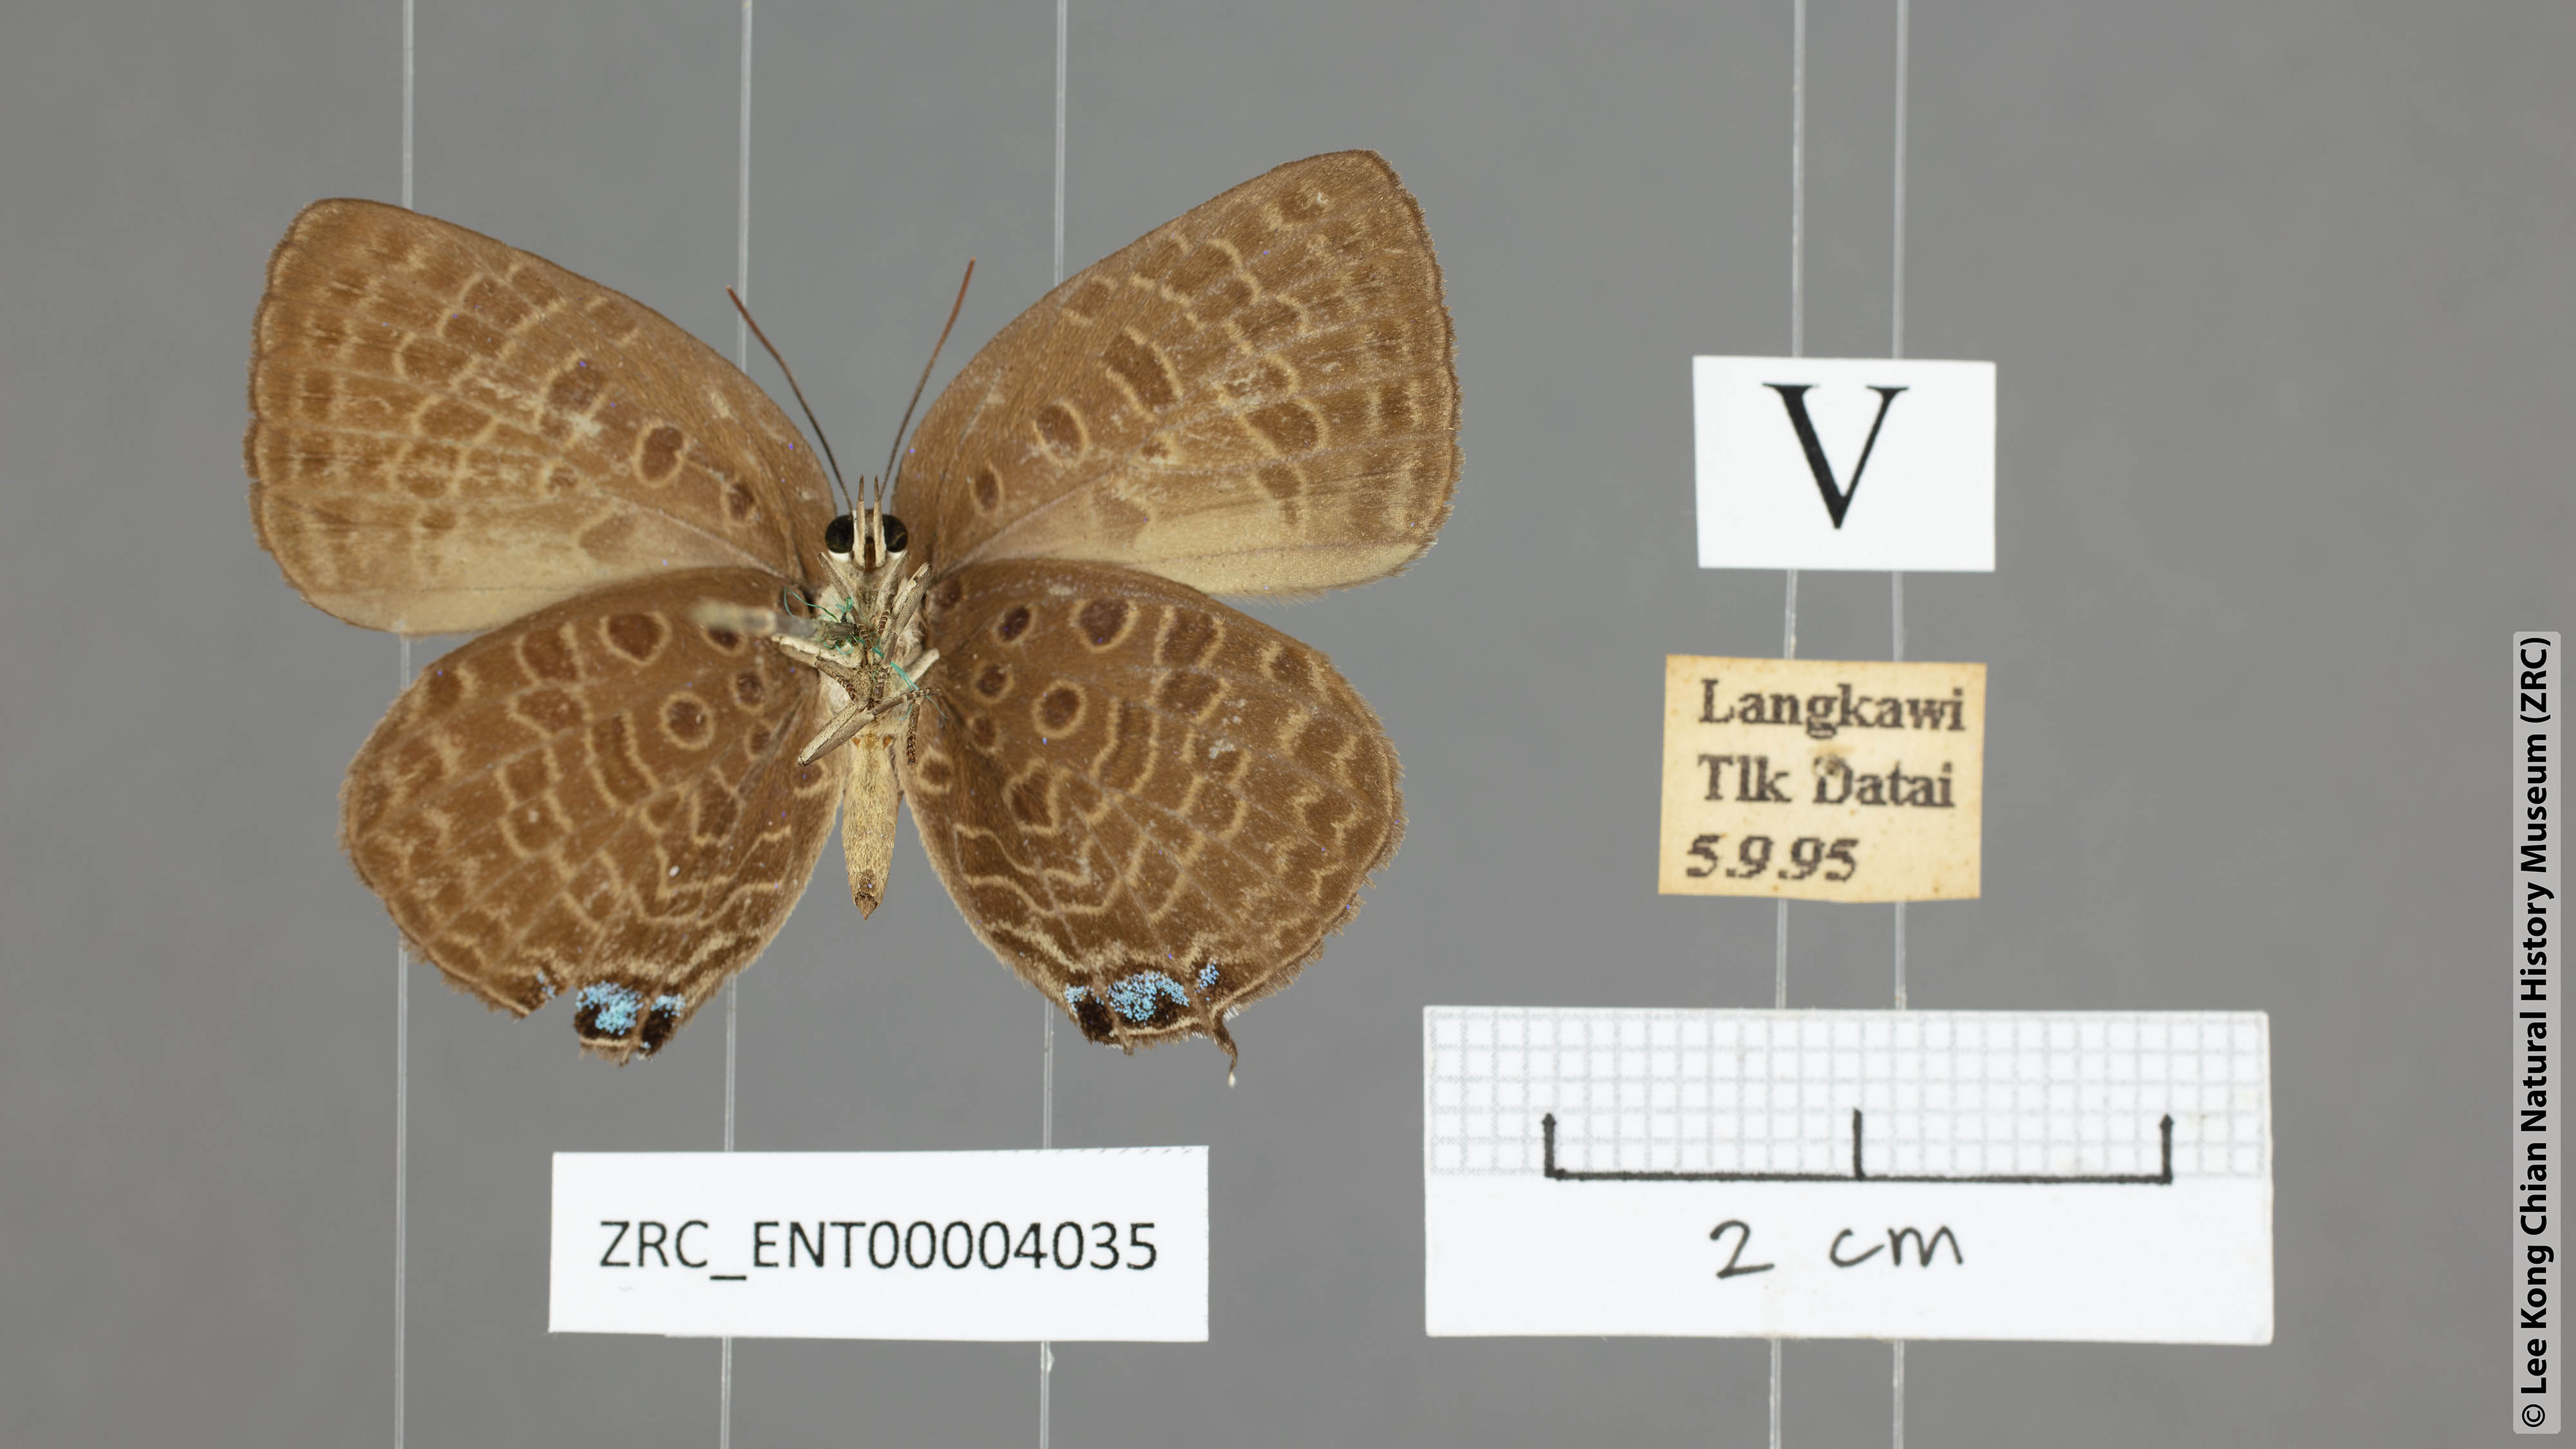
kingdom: Animalia
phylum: Arthropoda
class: Insecta
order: Lepidoptera
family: Lycaenidae
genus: Arhopala
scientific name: Arhopala pseudomuta
